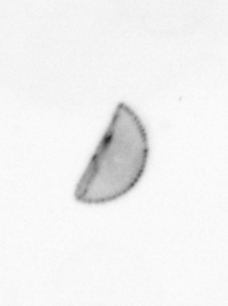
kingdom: Chromista
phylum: Ochrophyta
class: Bacillariophyceae
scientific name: Bacillariophyceae
